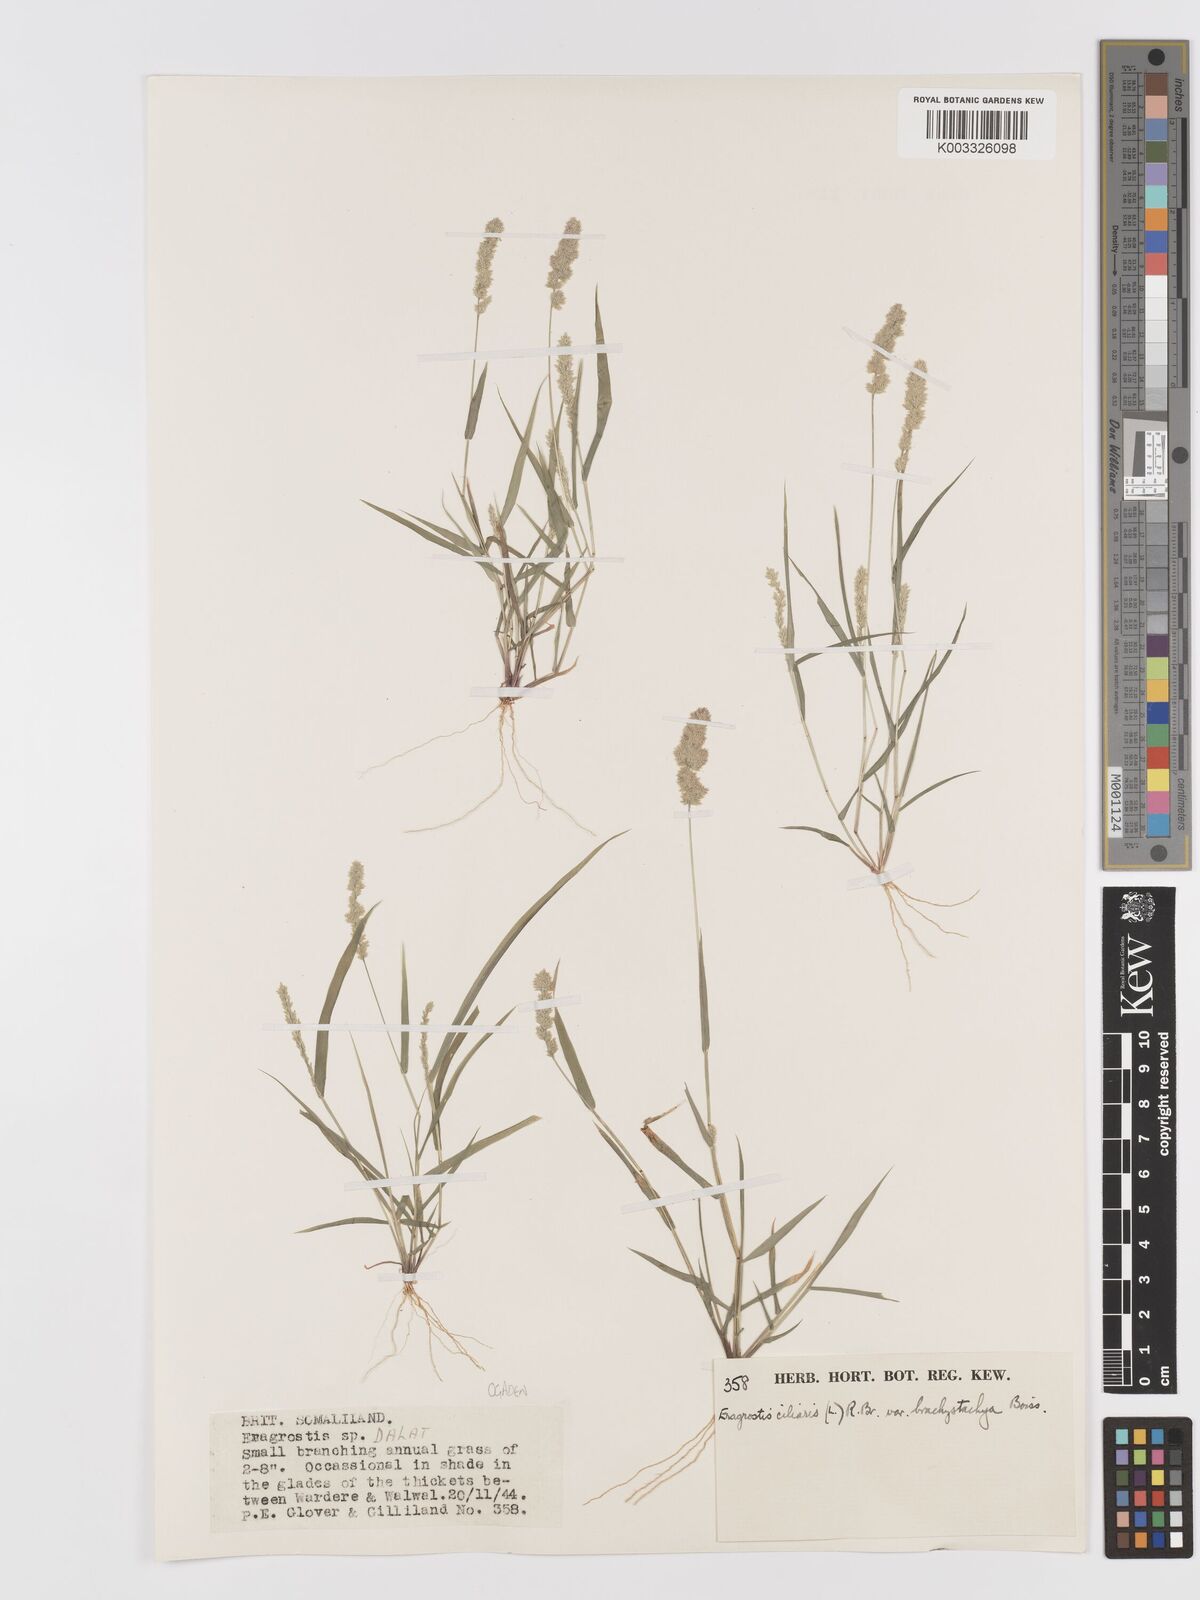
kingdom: Plantae
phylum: Tracheophyta
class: Liliopsida
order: Poales
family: Poaceae
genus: Eragrostis
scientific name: Eragrostis ciliaris
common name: Gophertail lovegrass
